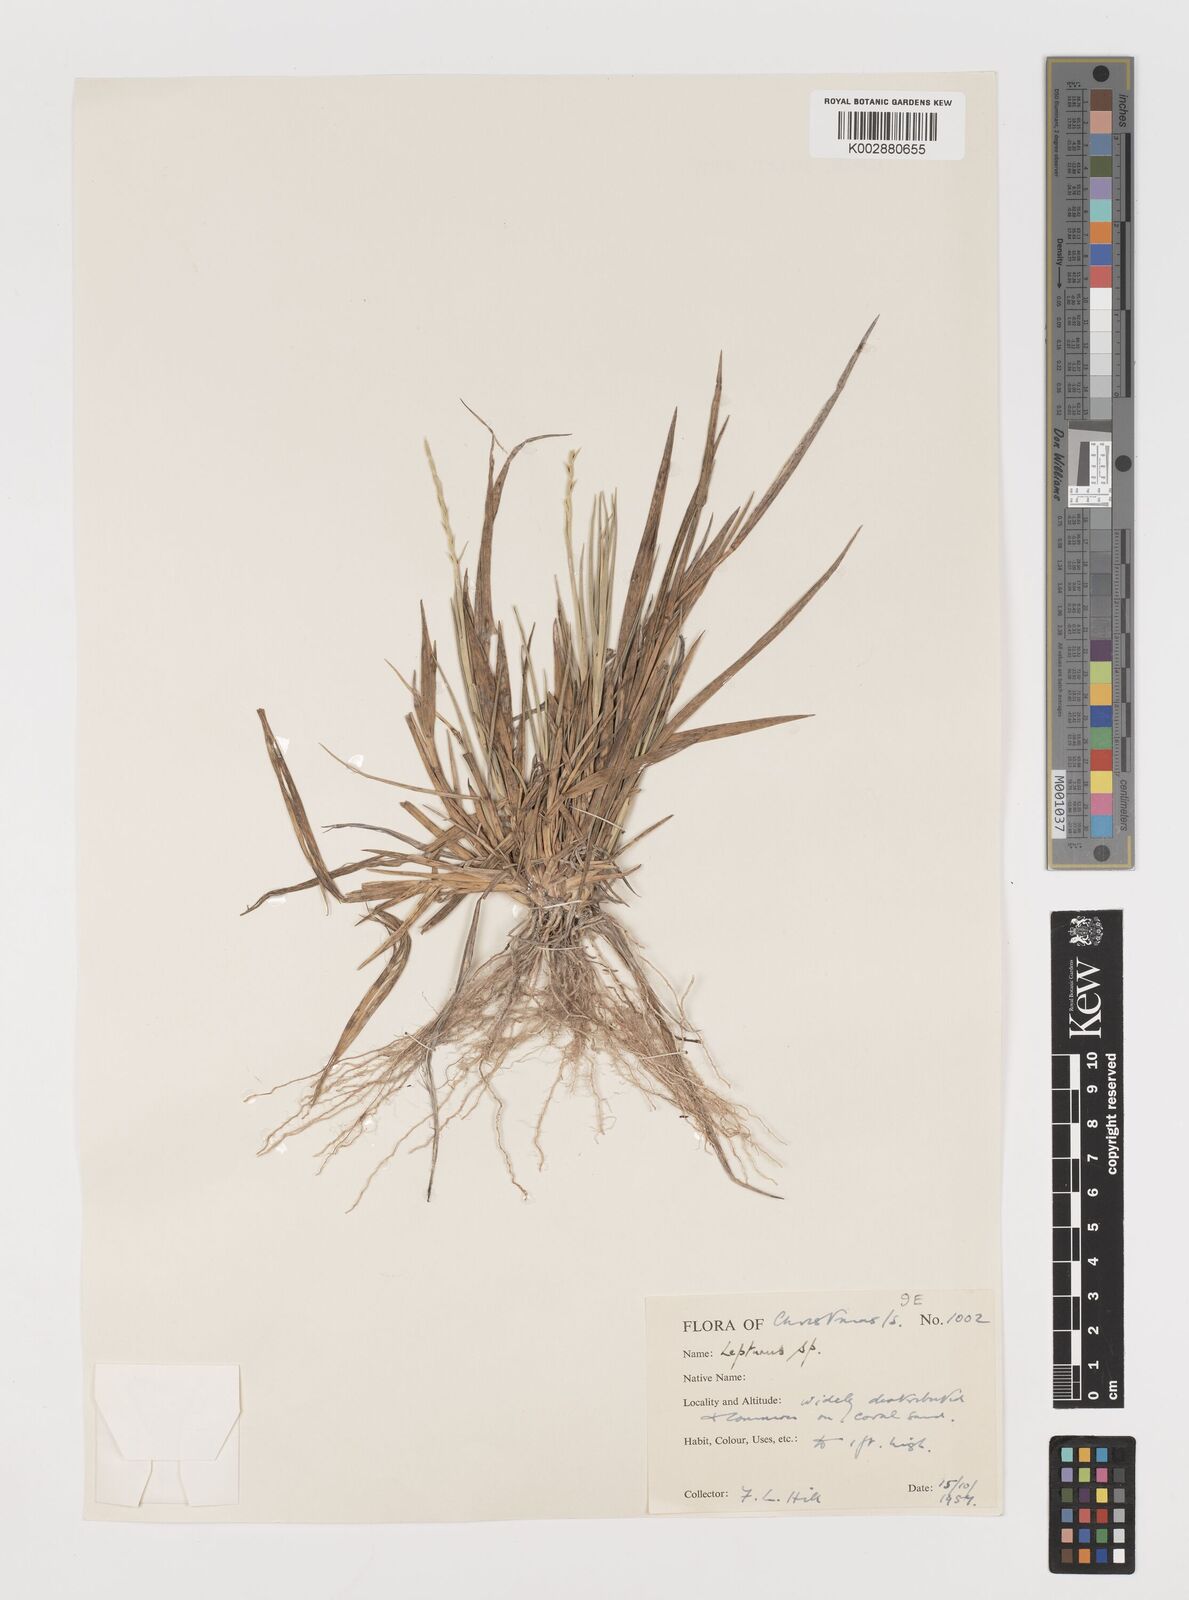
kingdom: Plantae
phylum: Tracheophyta
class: Liliopsida
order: Poales
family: Poaceae
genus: Lepturus
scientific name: Lepturus repens
